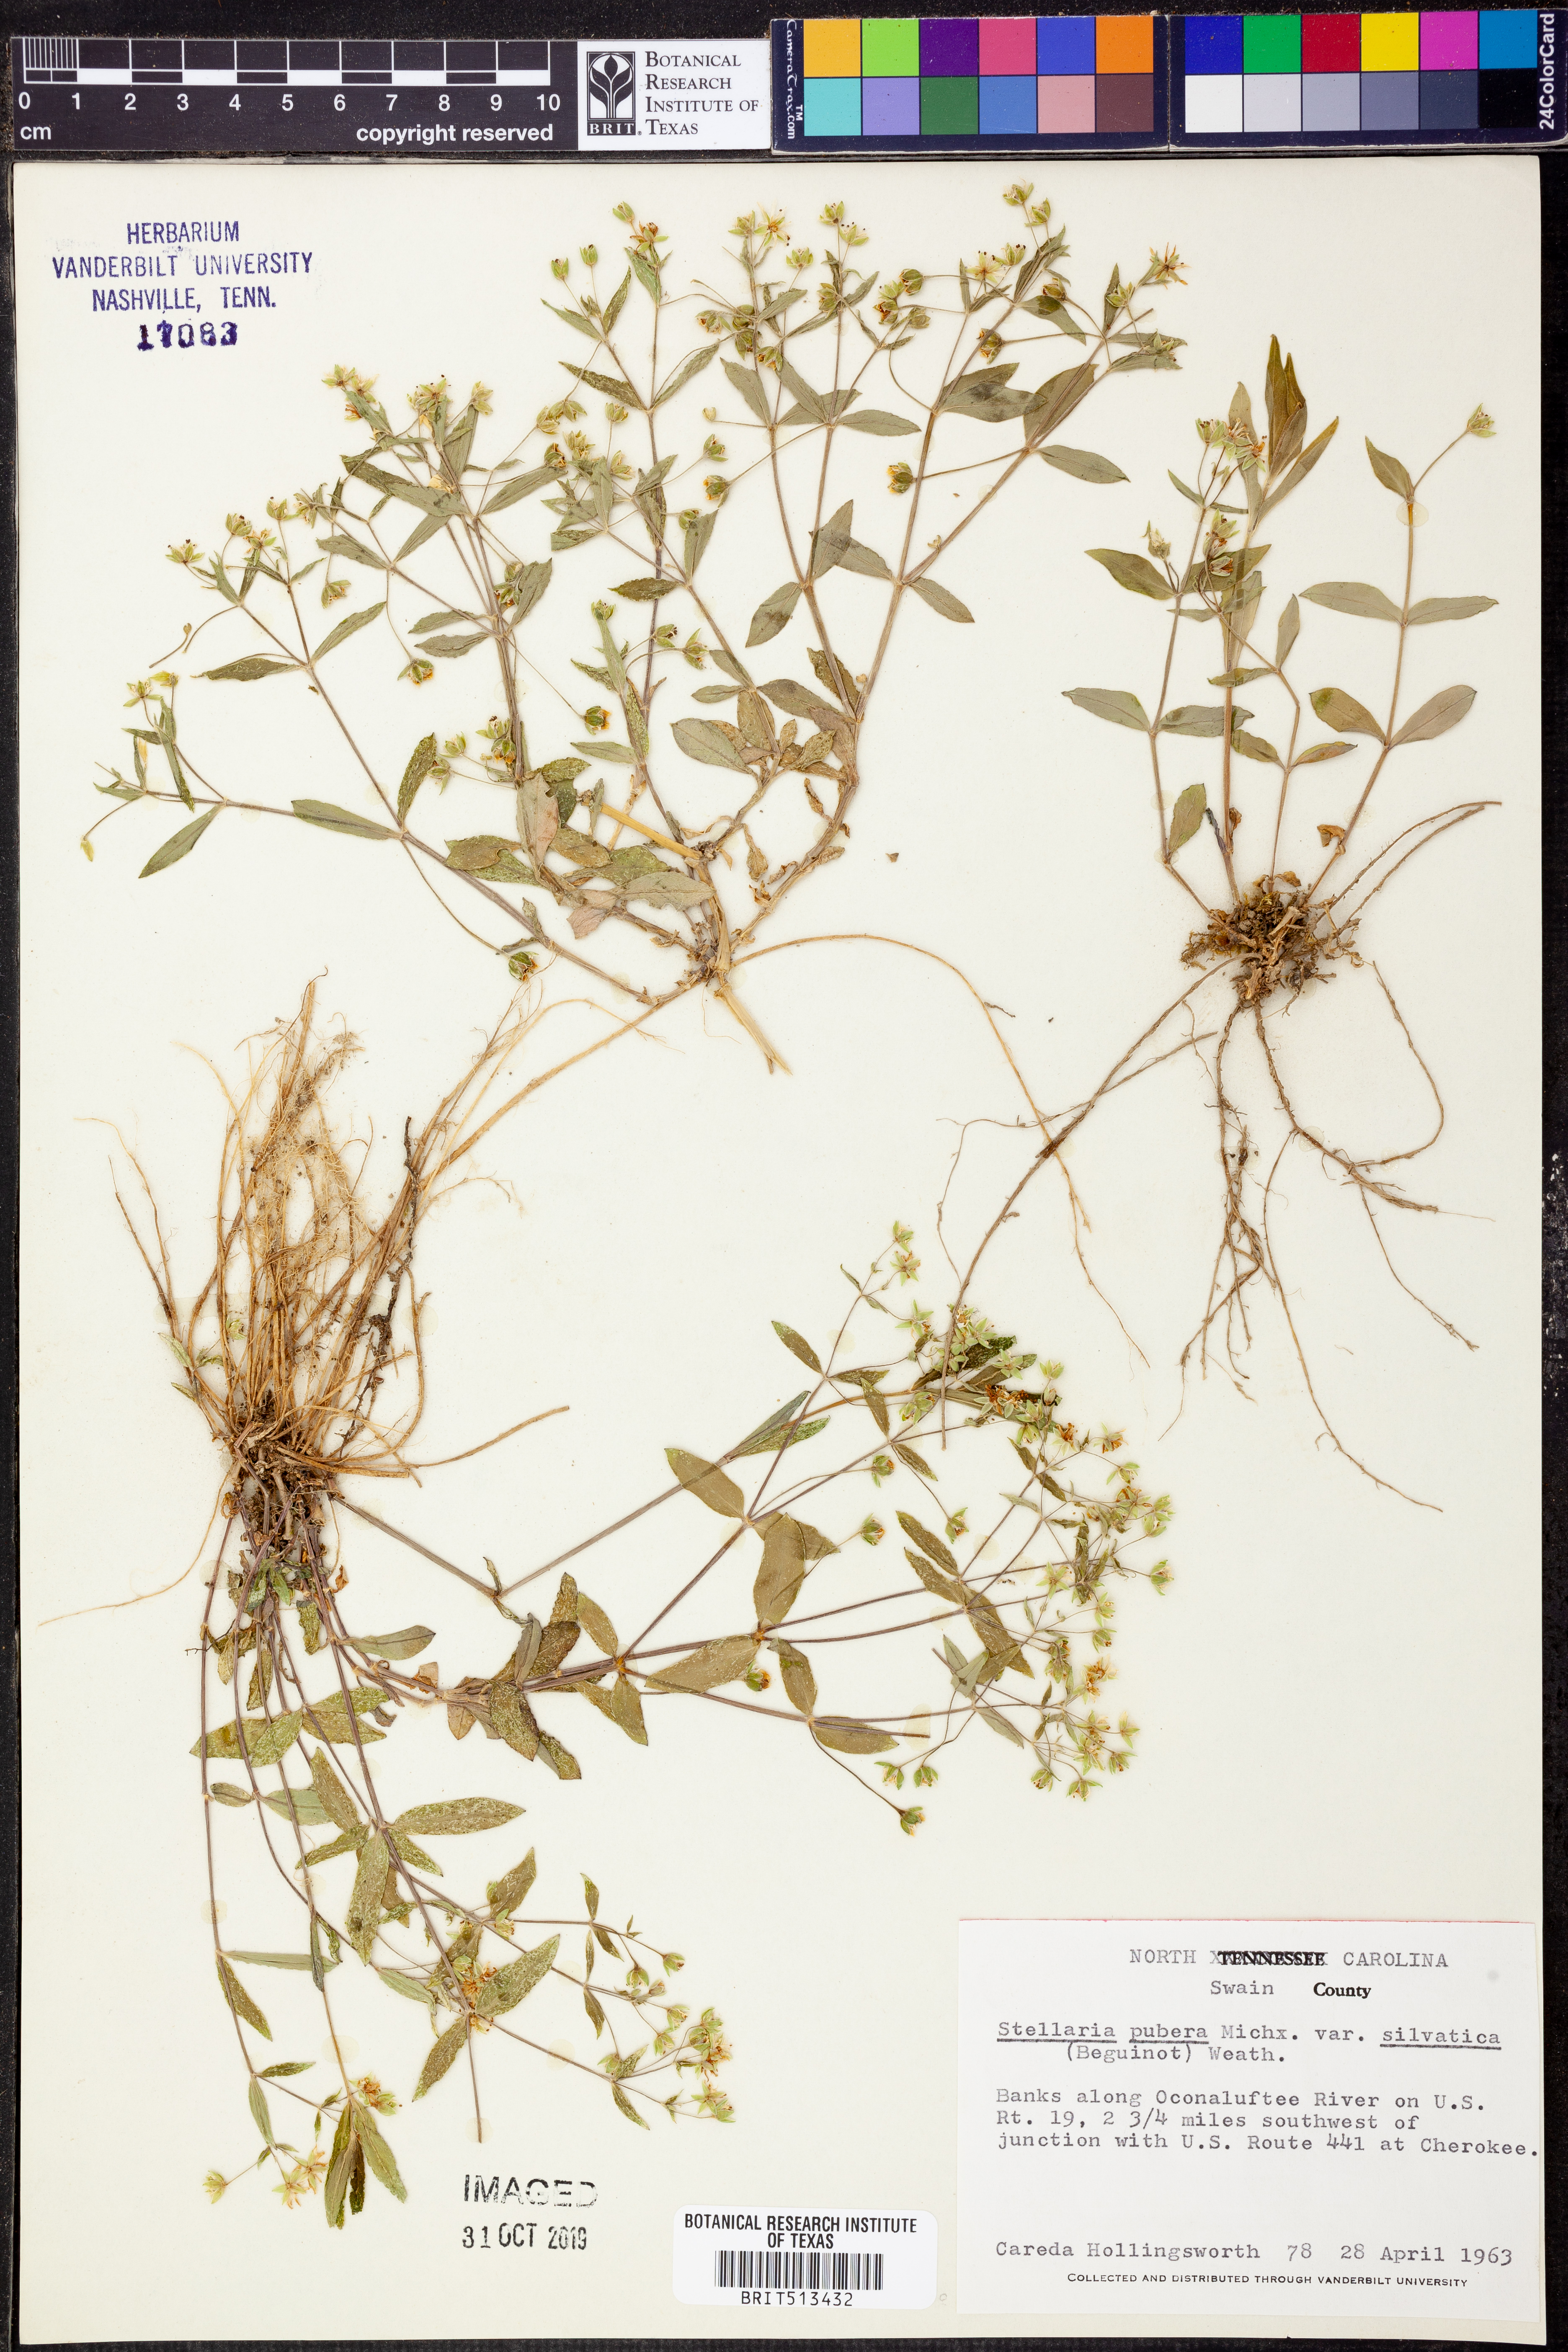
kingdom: Plantae
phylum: Tracheophyta
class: Magnoliopsida
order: Caryophyllales
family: Caryophyllaceae
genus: Stellaria
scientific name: Stellaria corei
